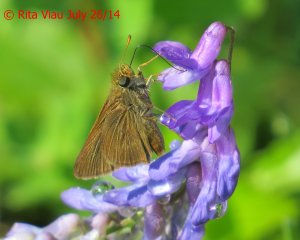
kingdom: Animalia
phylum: Arthropoda
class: Insecta
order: Lepidoptera
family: Hesperiidae
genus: Euphyes
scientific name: Euphyes vestris
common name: Dun Skipper
